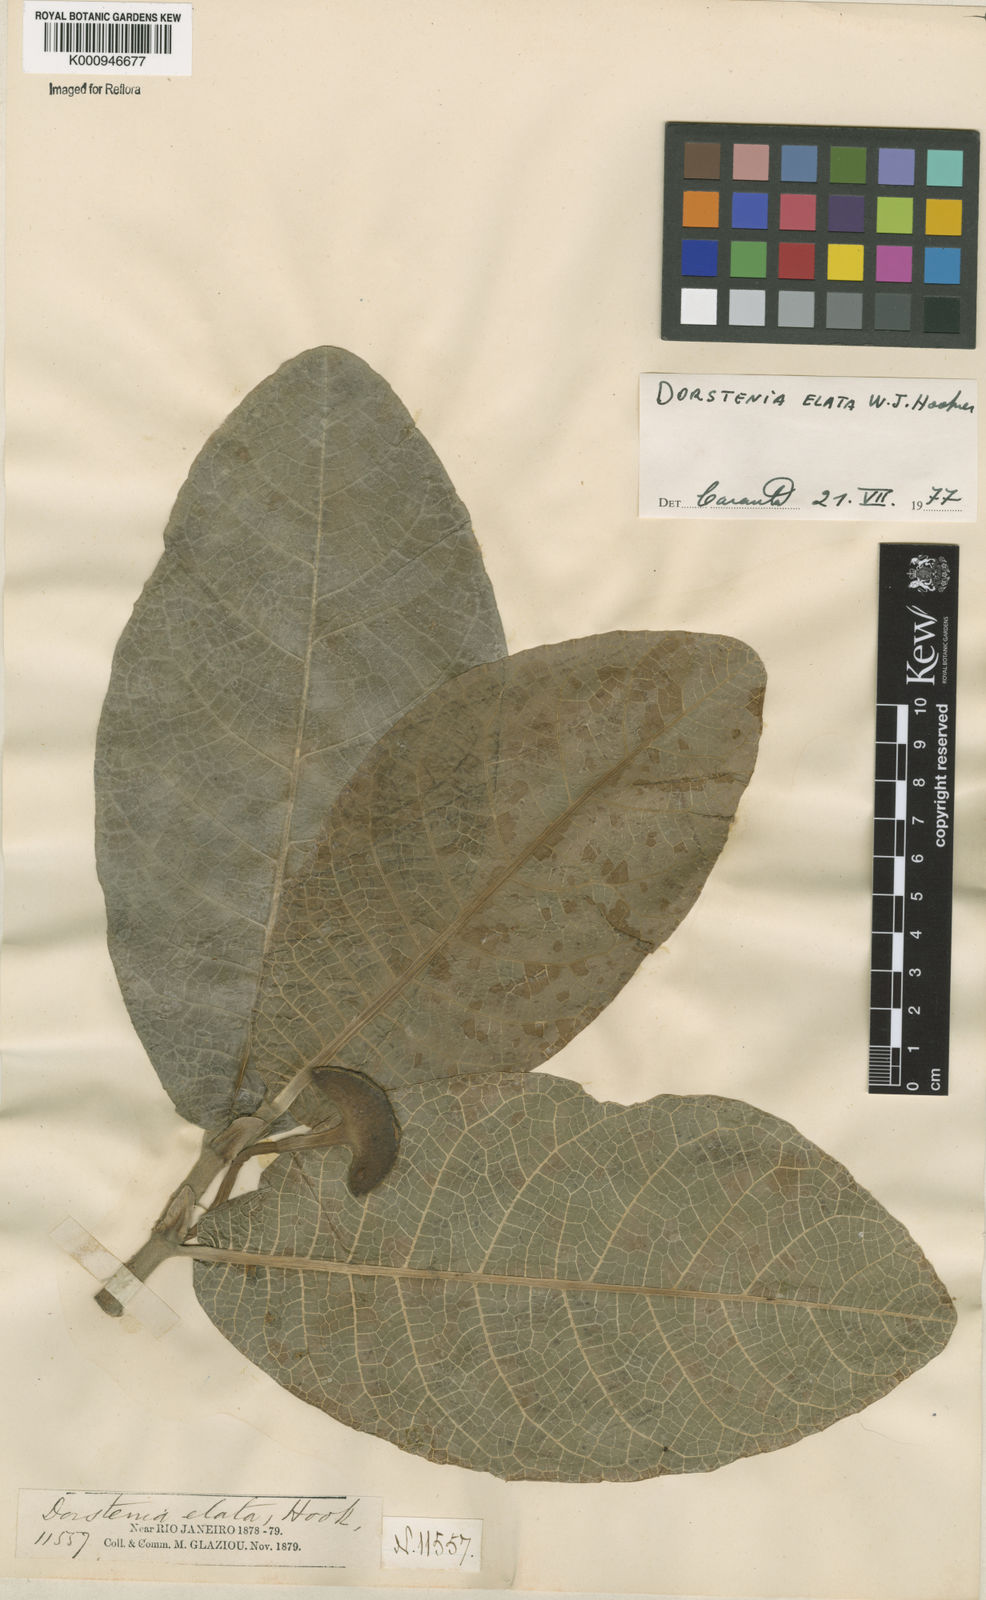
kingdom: Plantae
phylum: Tracheophyta
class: Magnoliopsida
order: Rosales
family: Moraceae
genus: Dorstenia
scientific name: Dorstenia
